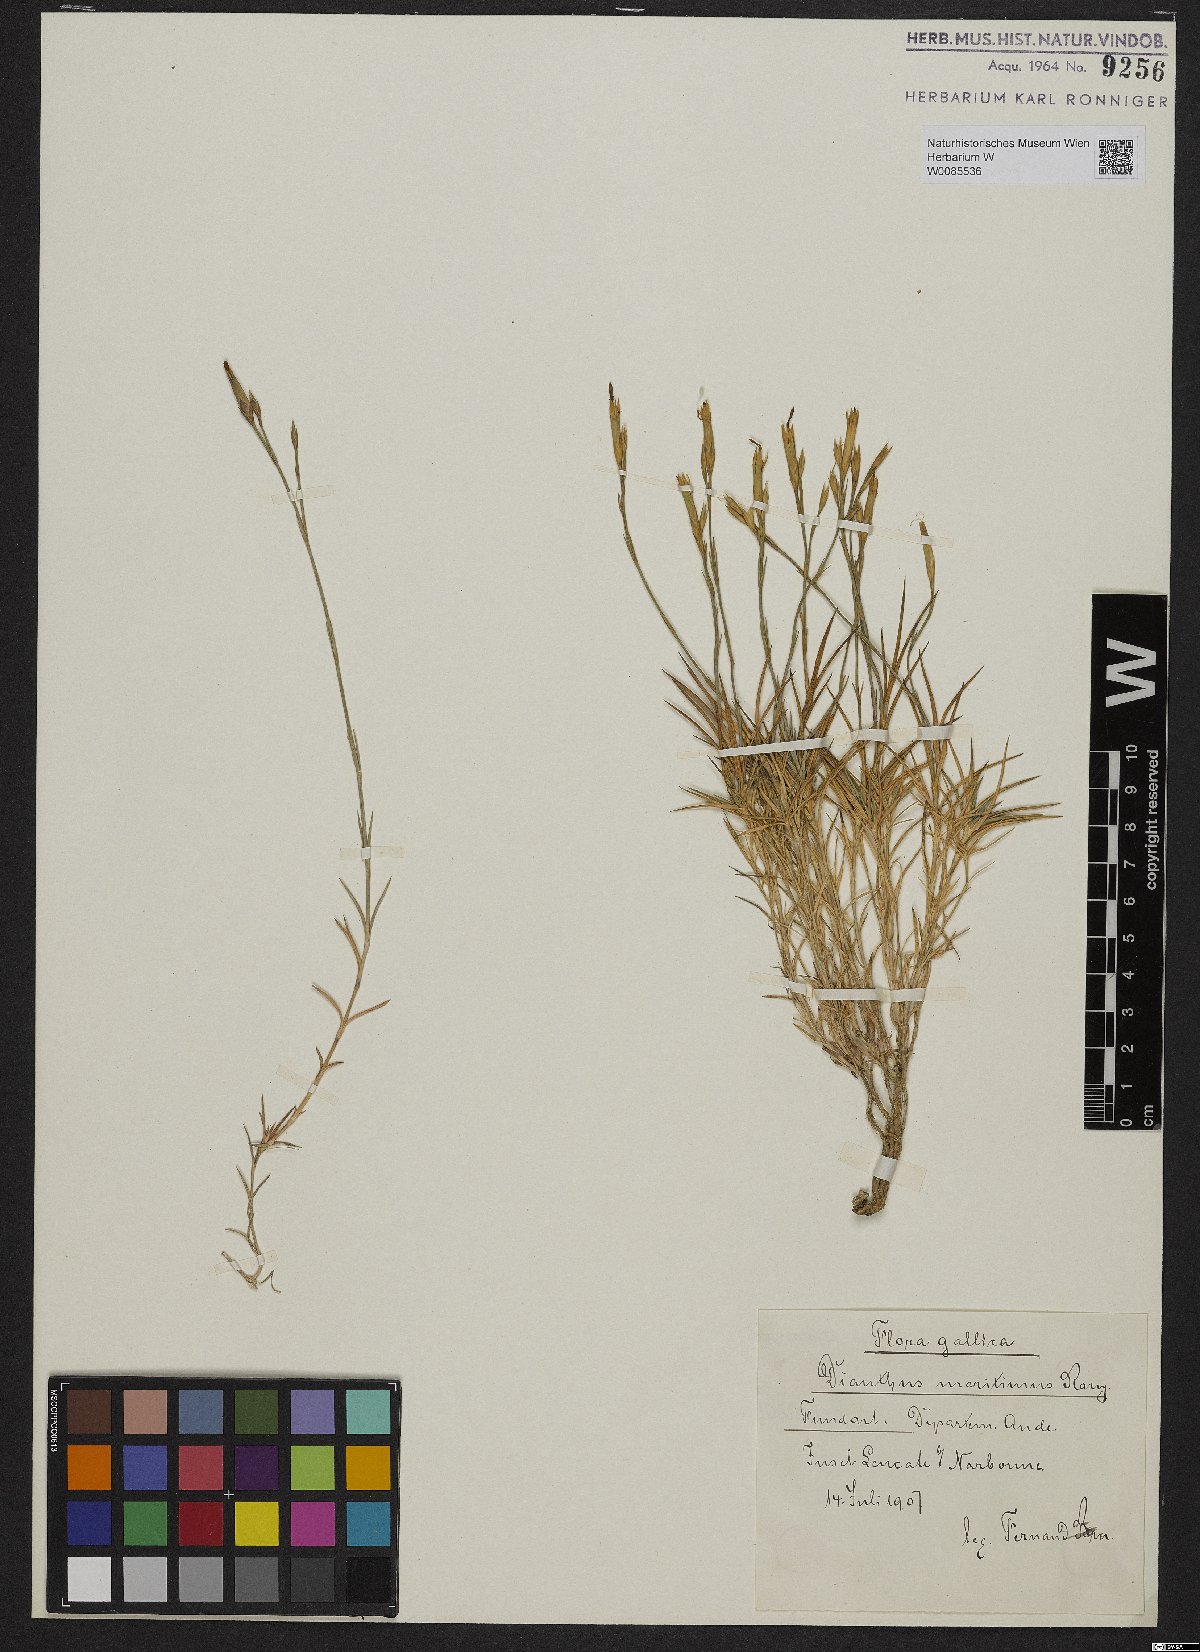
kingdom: Plantae
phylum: Tracheophyta
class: Magnoliopsida
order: Caryophyllales
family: Caryophyllaceae
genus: Dianthus
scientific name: Dianthus pyrenaicus
